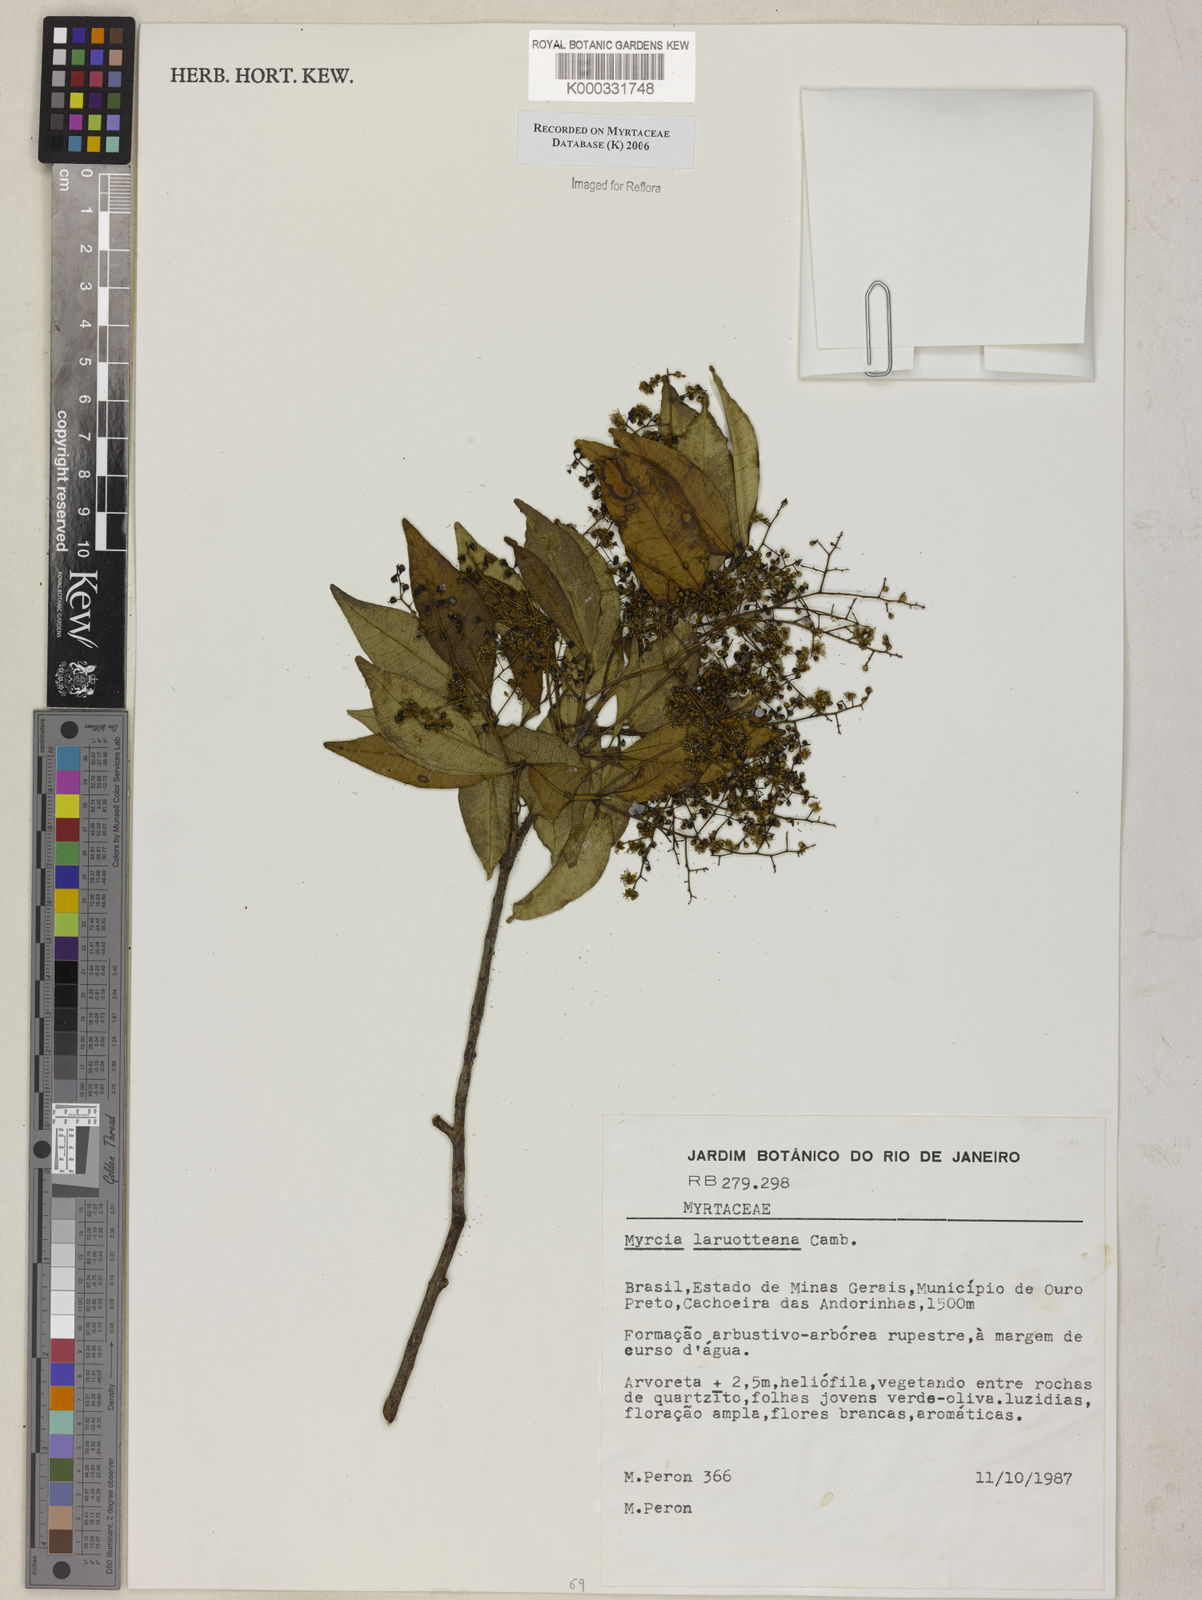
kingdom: Plantae
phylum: Tracheophyta
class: Magnoliopsida
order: Myrtales
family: Myrtaceae
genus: Myrcia
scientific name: Myrcia laruotteana
